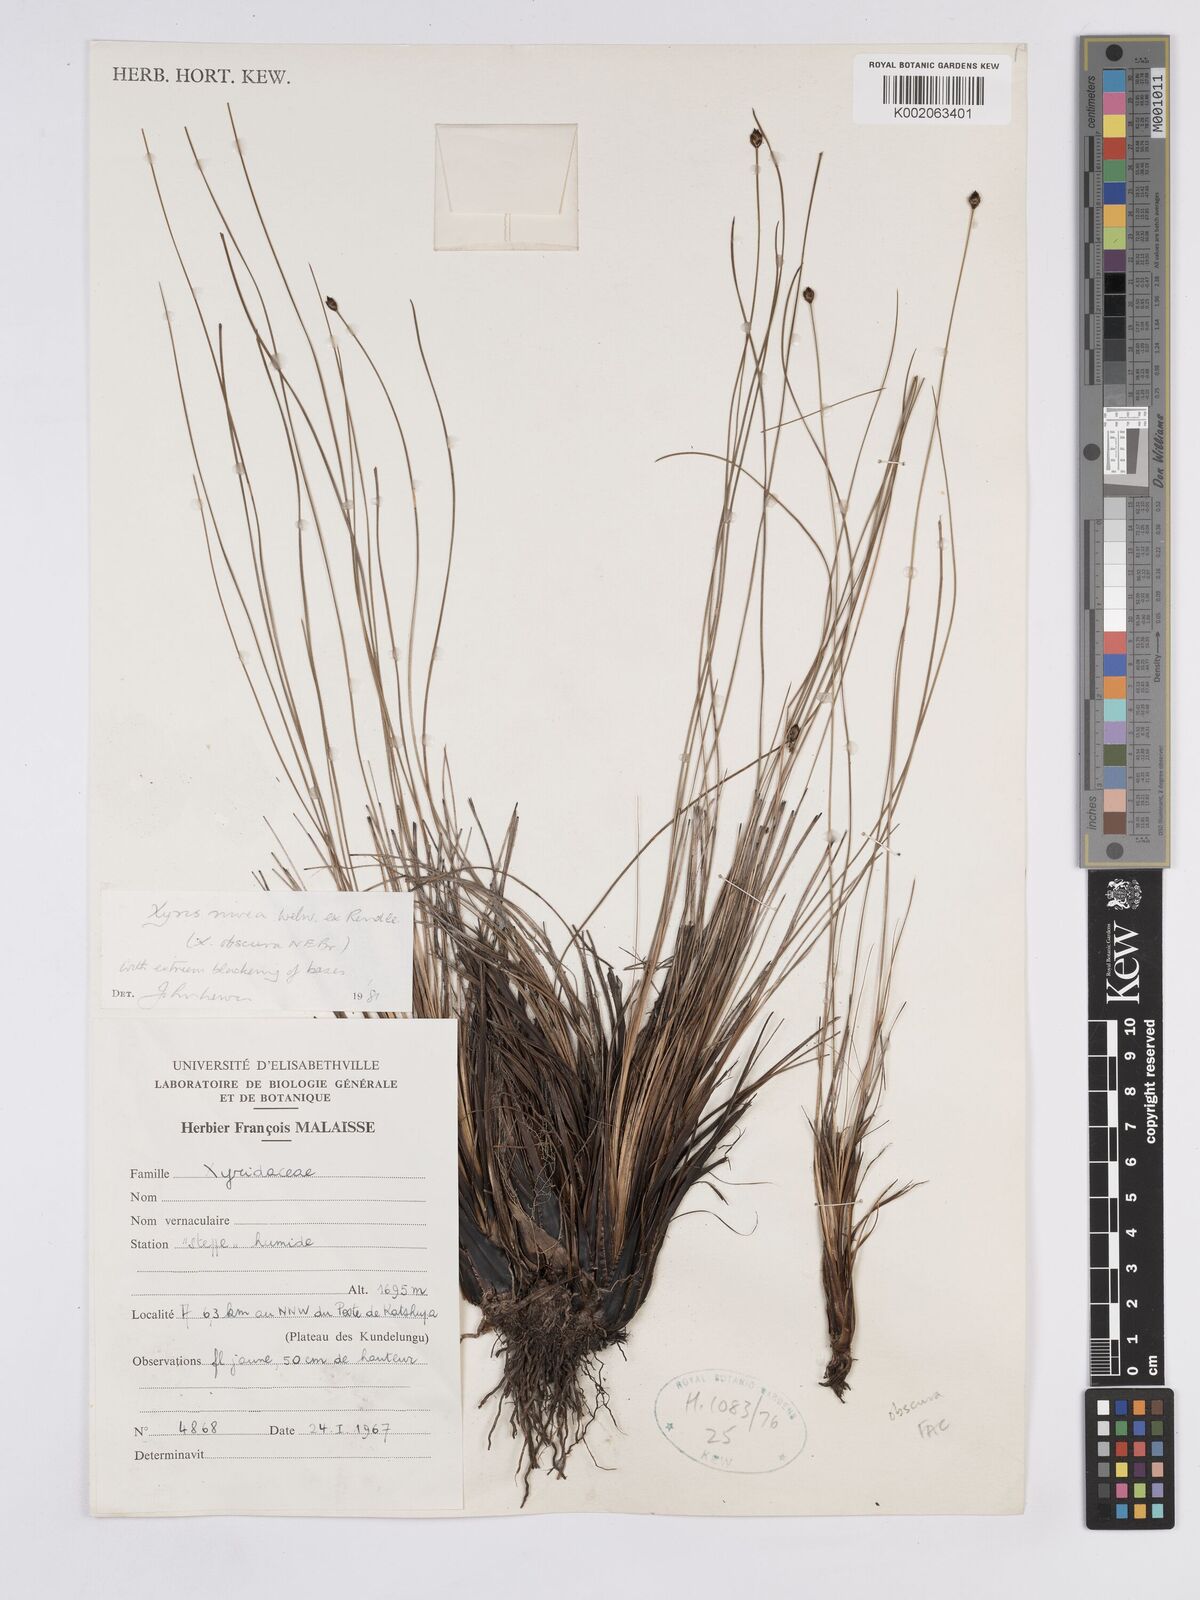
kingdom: Plantae
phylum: Tracheophyta
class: Liliopsida
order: Poales
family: Xyridaceae
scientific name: Xyridaceae
